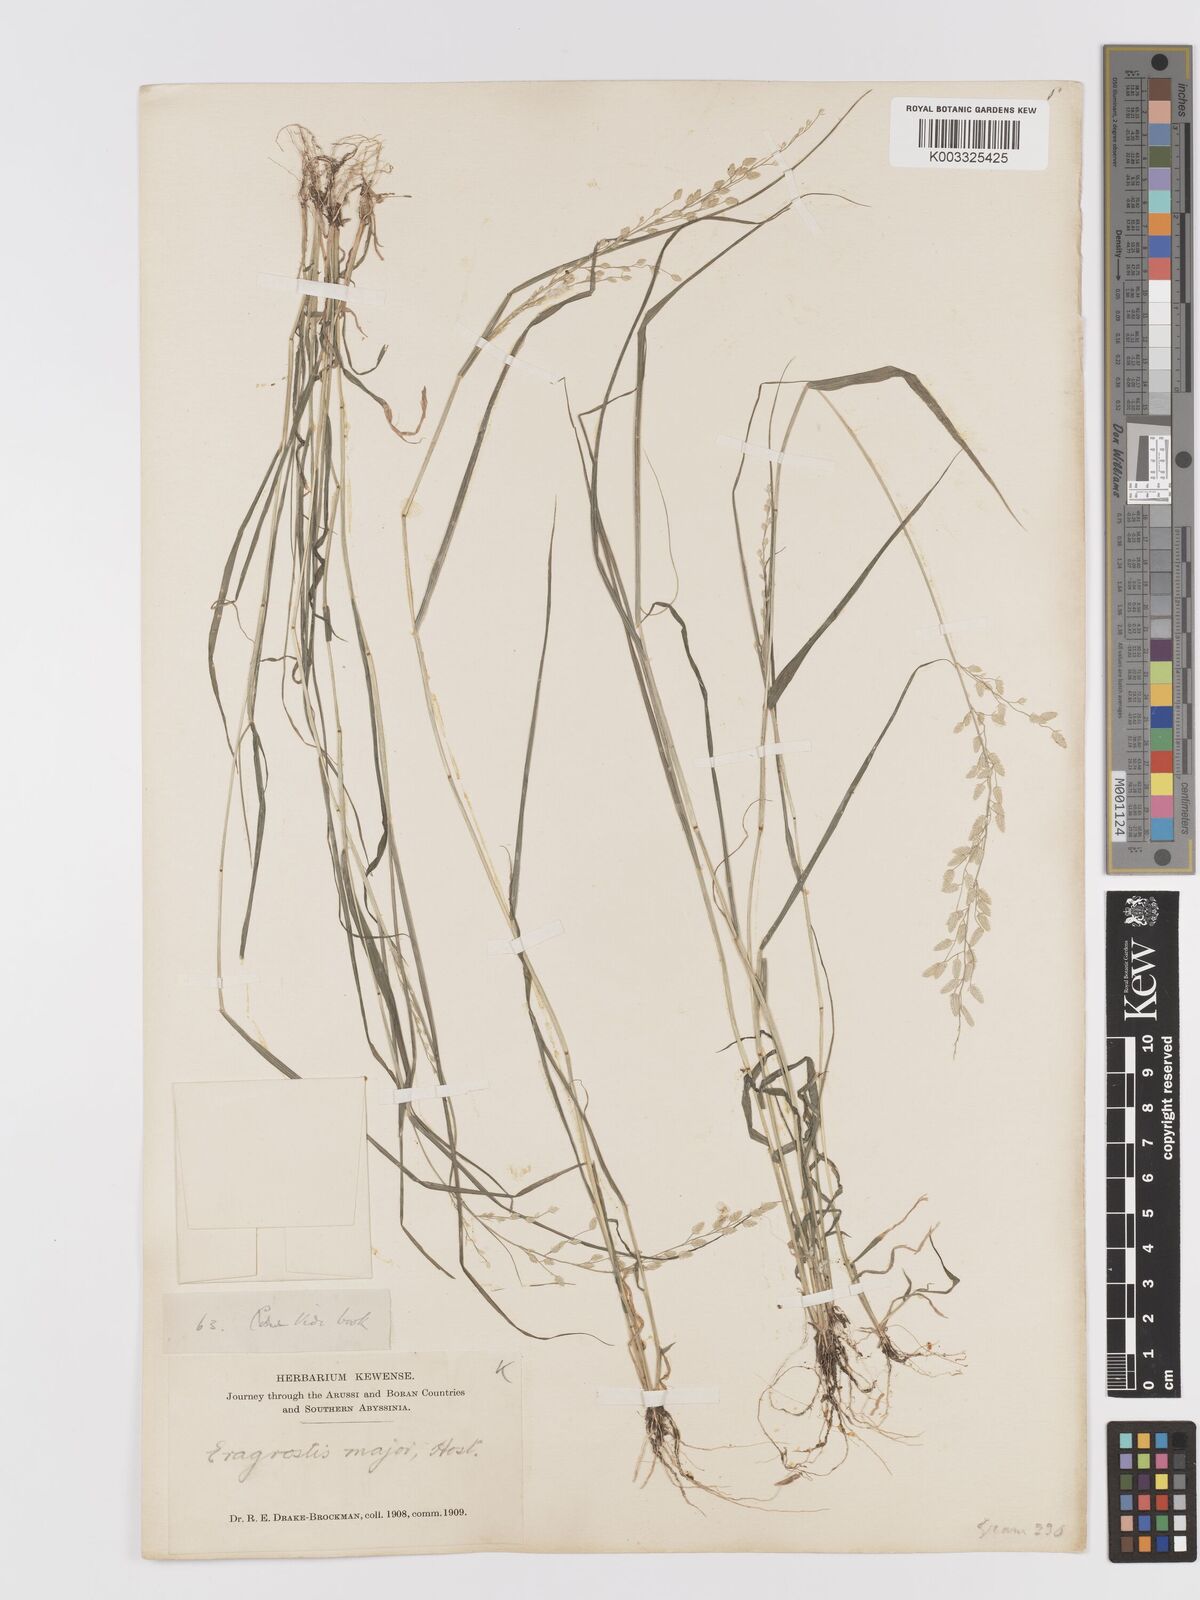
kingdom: Plantae
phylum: Tracheophyta
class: Liliopsida
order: Poales
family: Poaceae
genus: Eragrostis
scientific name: Eragrostis cilianensis
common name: Stinkgrass
